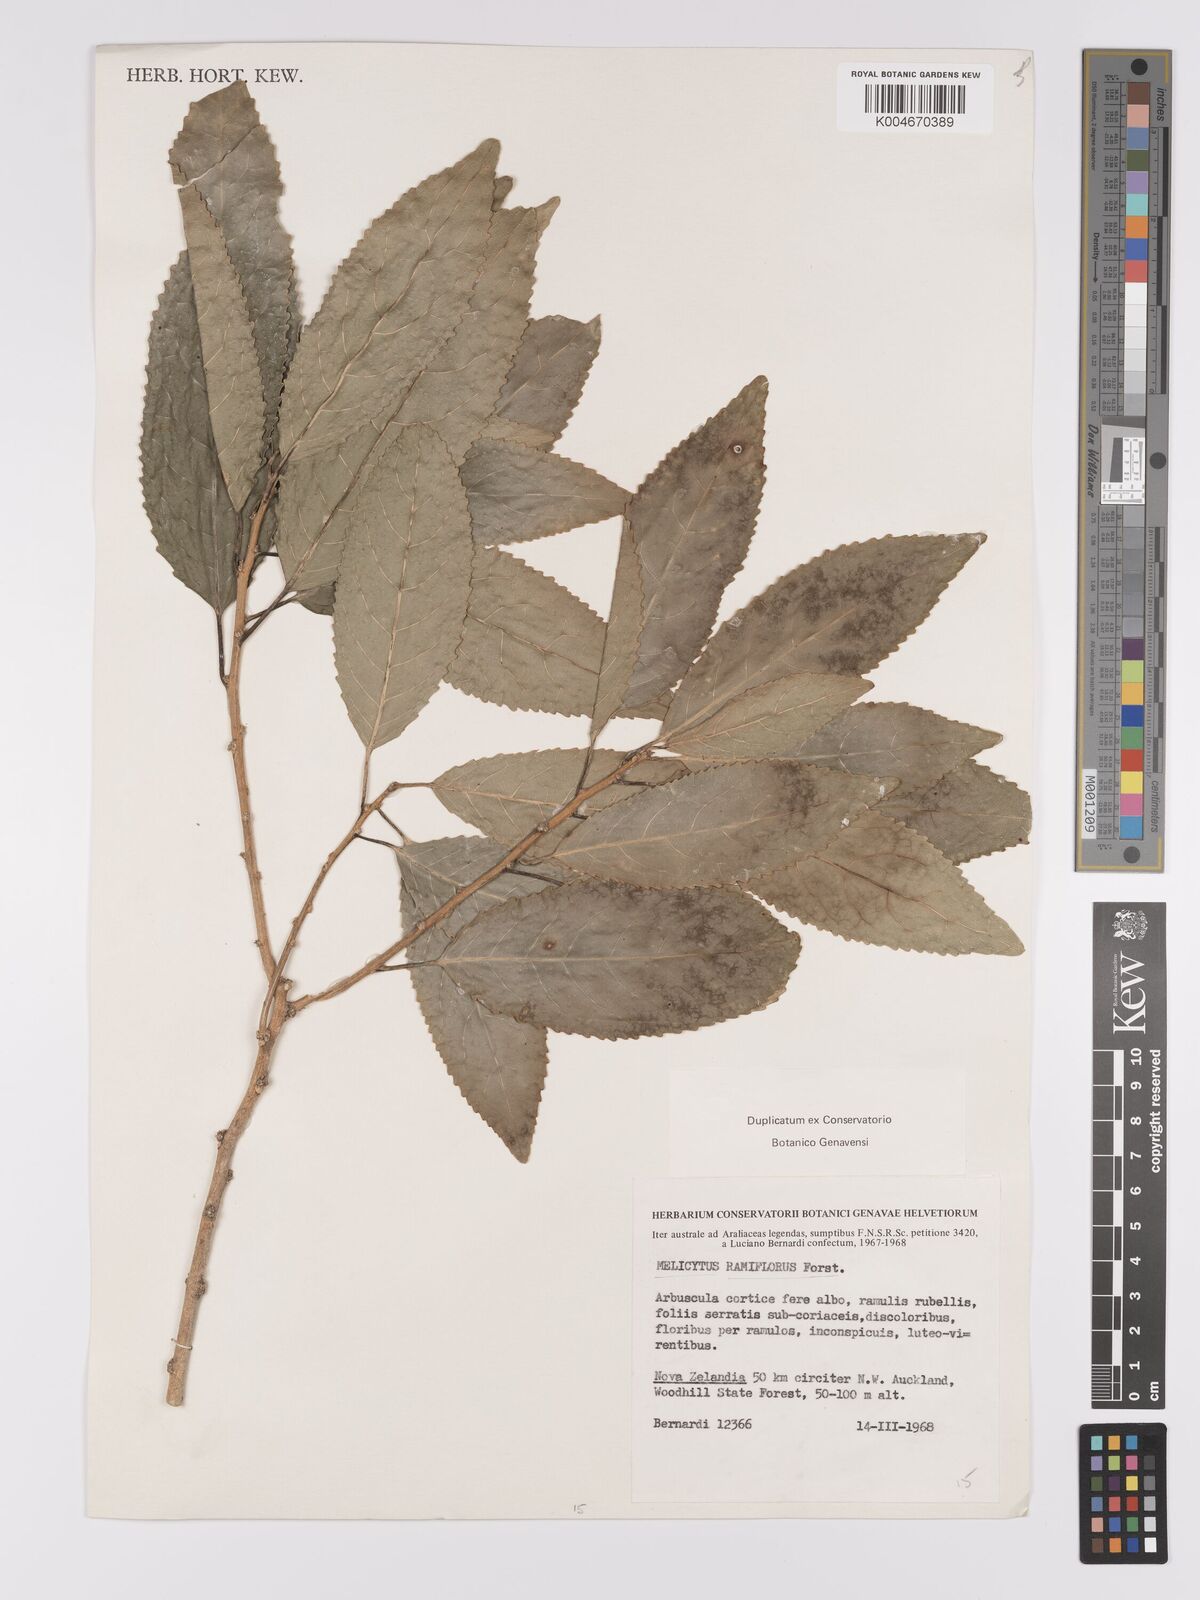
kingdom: Plantae
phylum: Tracheophyta
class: Magnoliopsida
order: Malpighiales
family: Violaceae
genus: Melicytus
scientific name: Melicytus ramiflorus
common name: Mahoe
